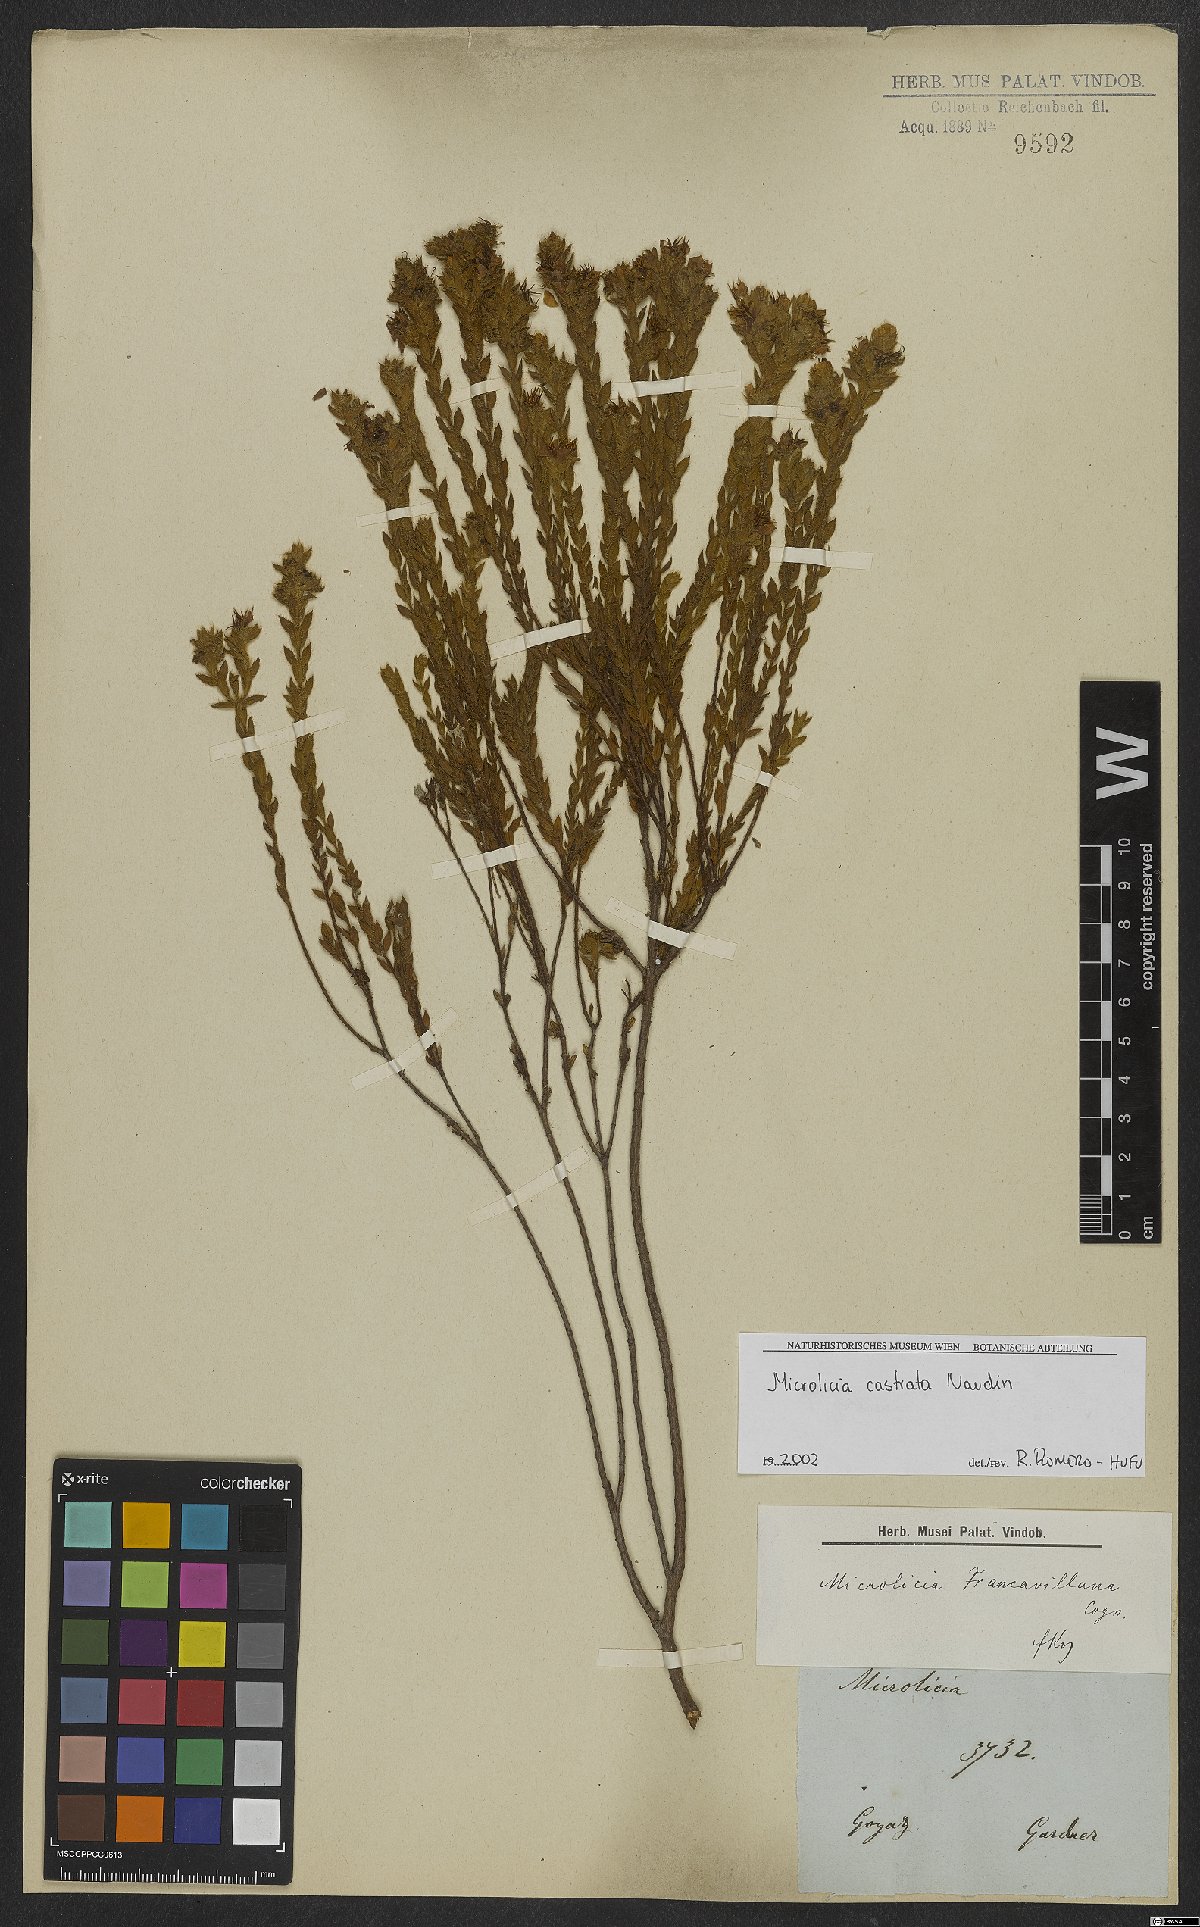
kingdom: Plantae
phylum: Tracheophyta
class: Magnoliopsida
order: Myrtales
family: Melastomataceae
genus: Microlicia
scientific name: Microlicia castrata
